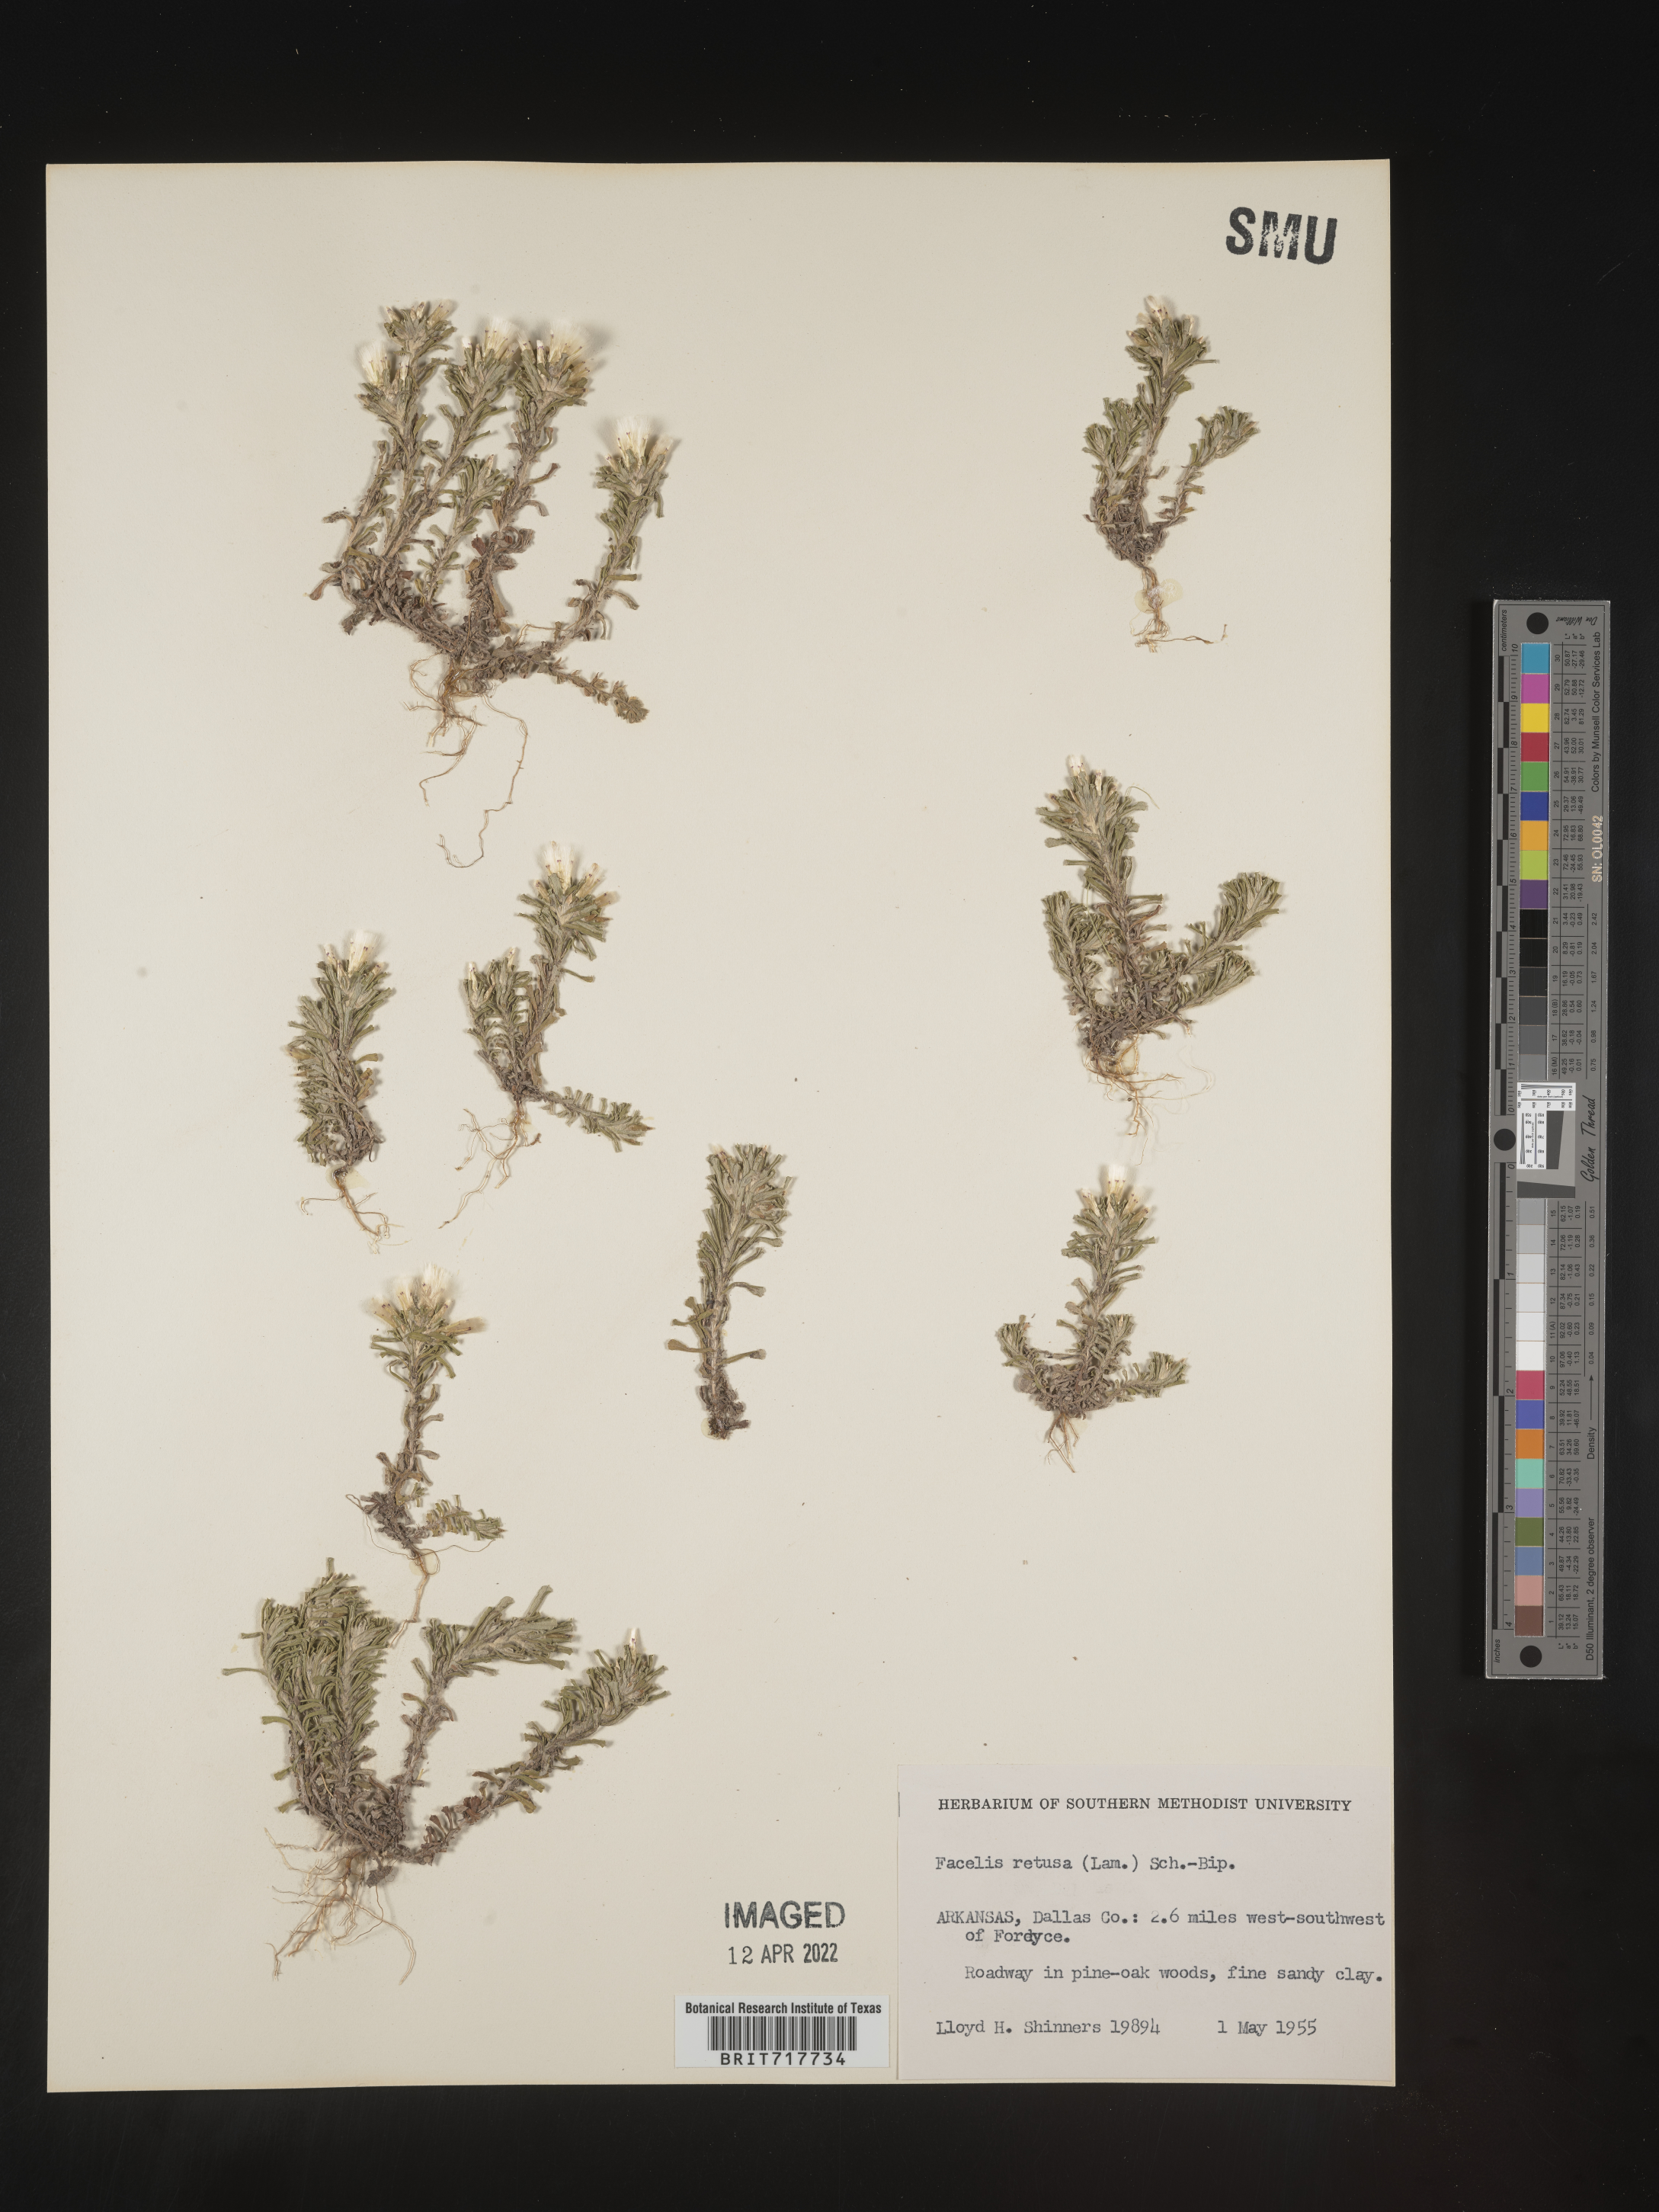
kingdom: Plantae
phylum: Tracheophyta
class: Magnoliopsida
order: Asterales
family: Asteraceae
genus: Facelis
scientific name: Facelis retusa
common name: Annual trampweed
